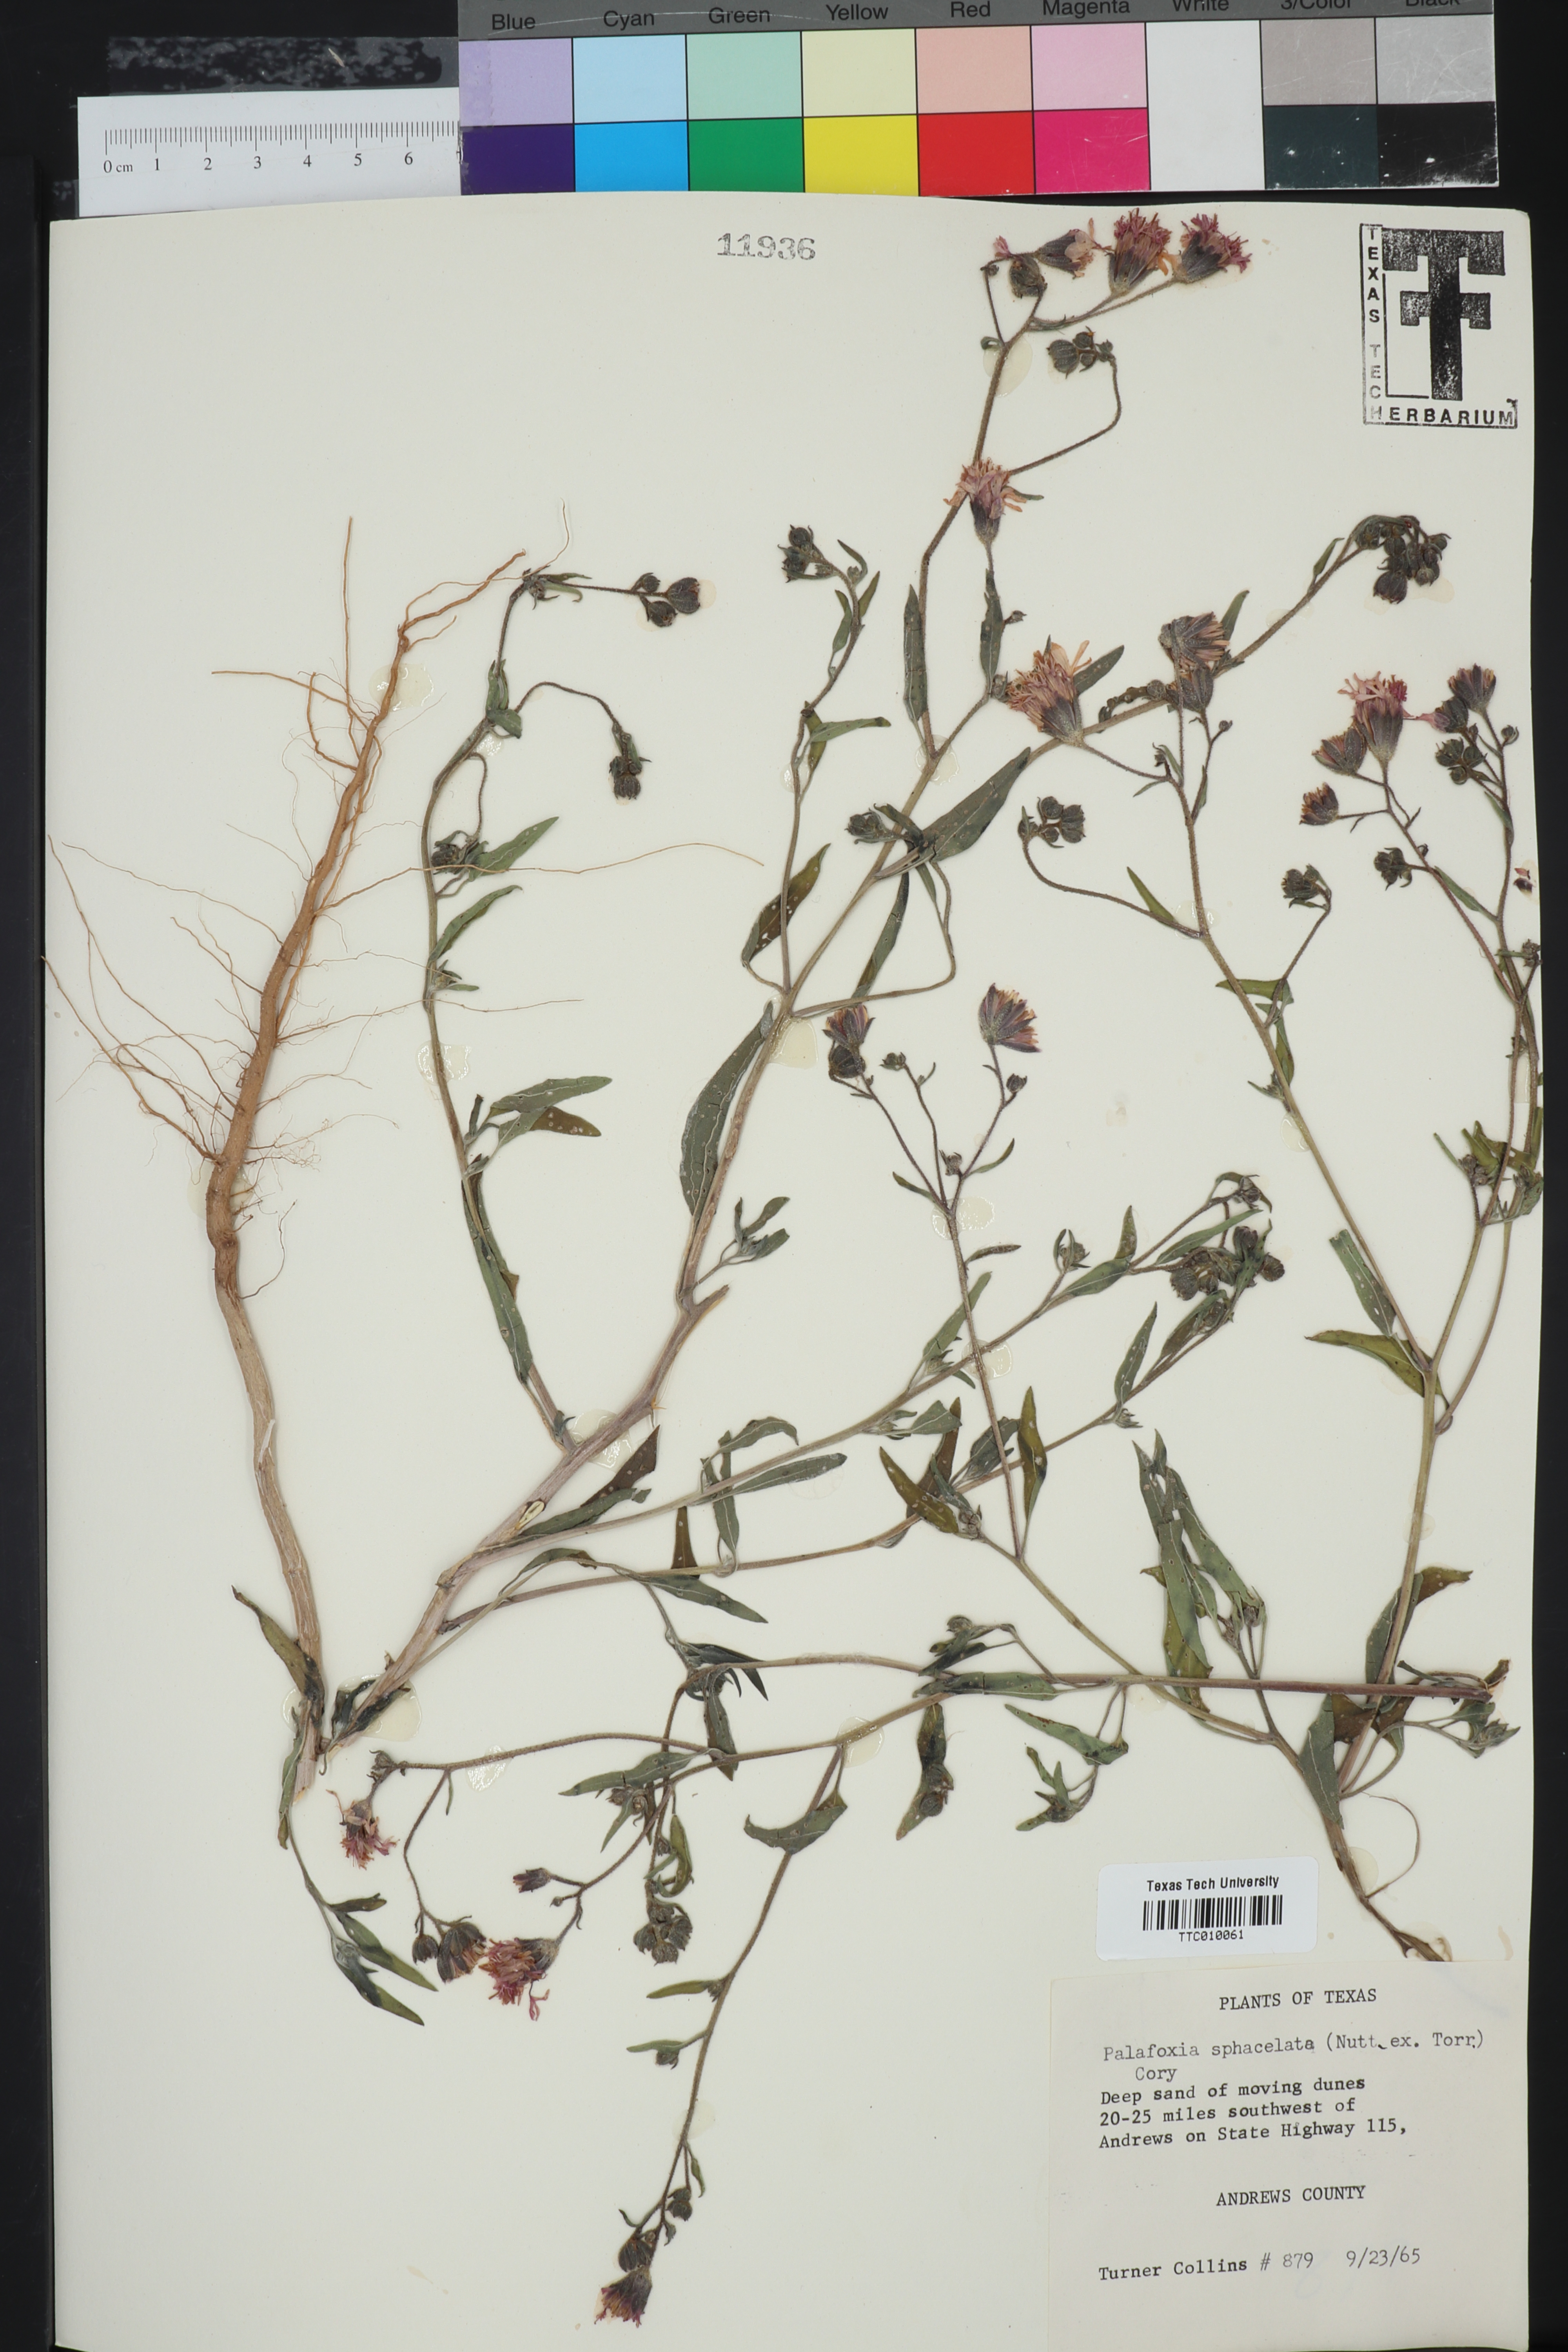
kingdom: Plantae
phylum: Tracheophyta
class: Magnoliopsida
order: Asterales
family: Asteraceae
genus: Palafoxia
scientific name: Palafoxia sphacelata
